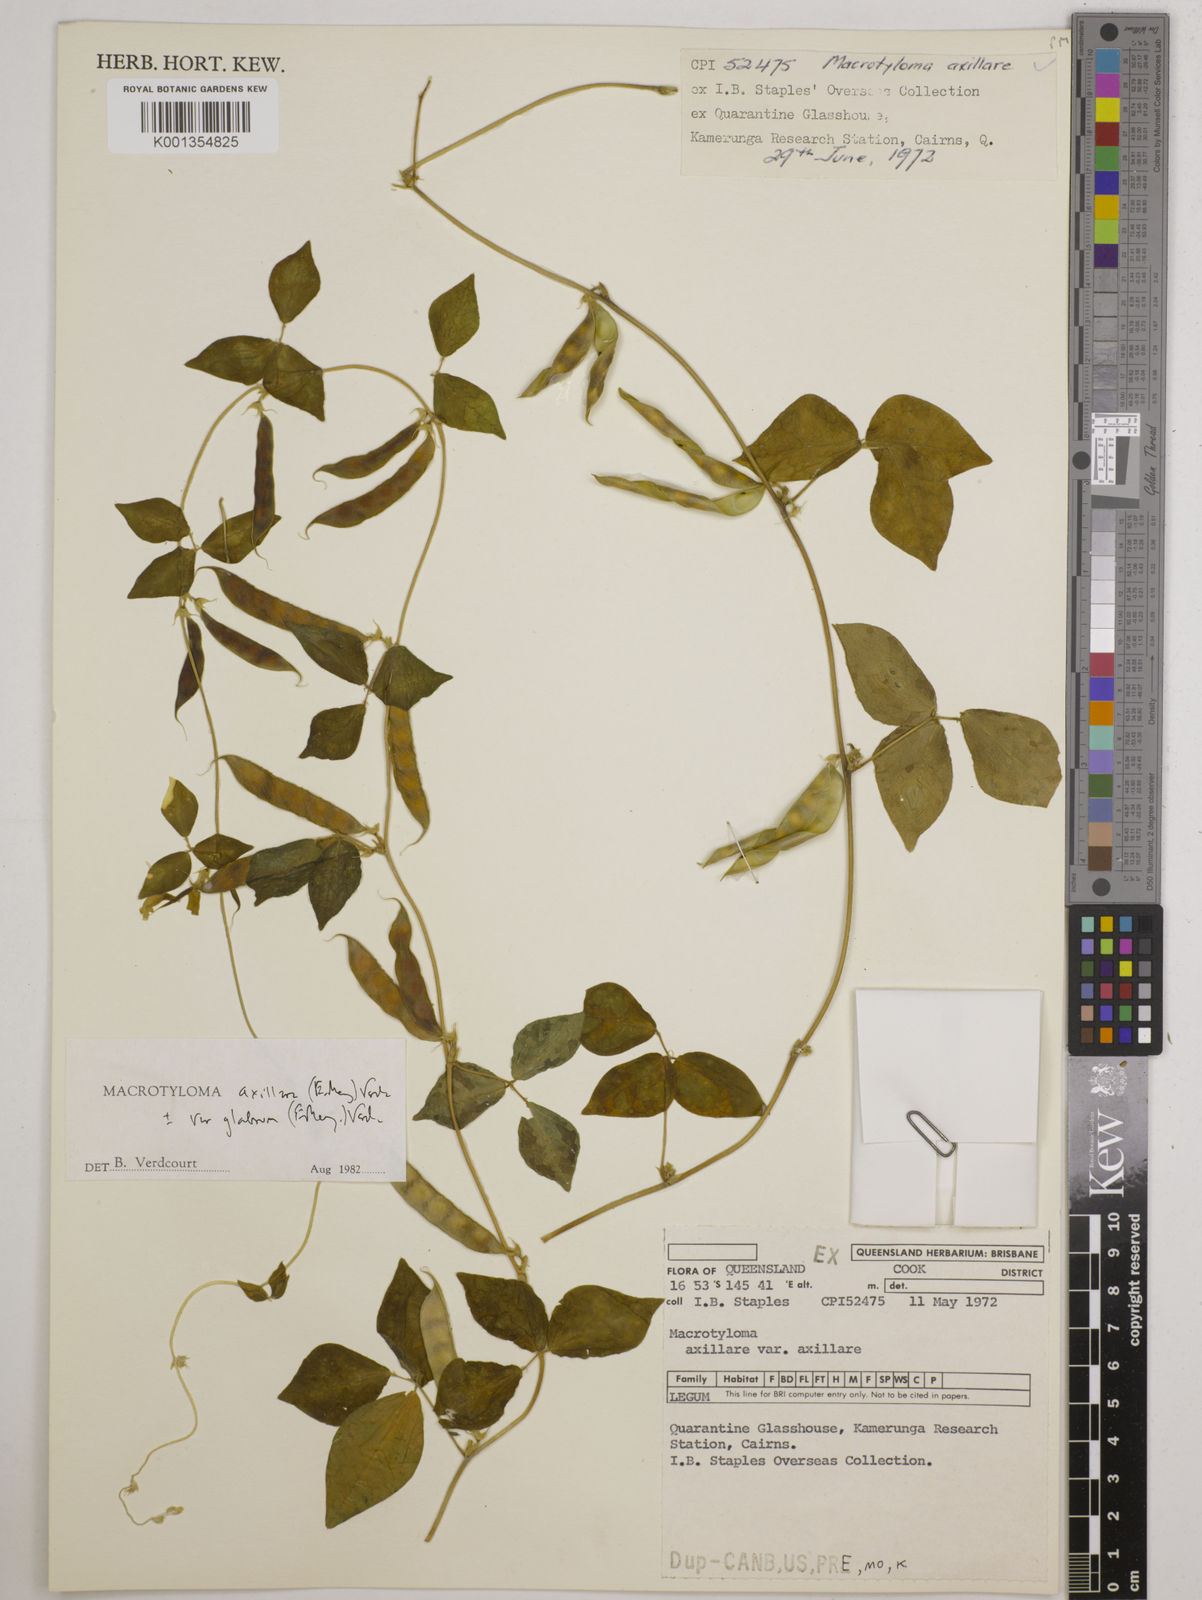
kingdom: Plantae
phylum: Tracheophyta
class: Magnoliopsida
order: Fabales
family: Fabaceae
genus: Macrotyloma
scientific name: Macrotyloma axillare
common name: Perennial horsegram
